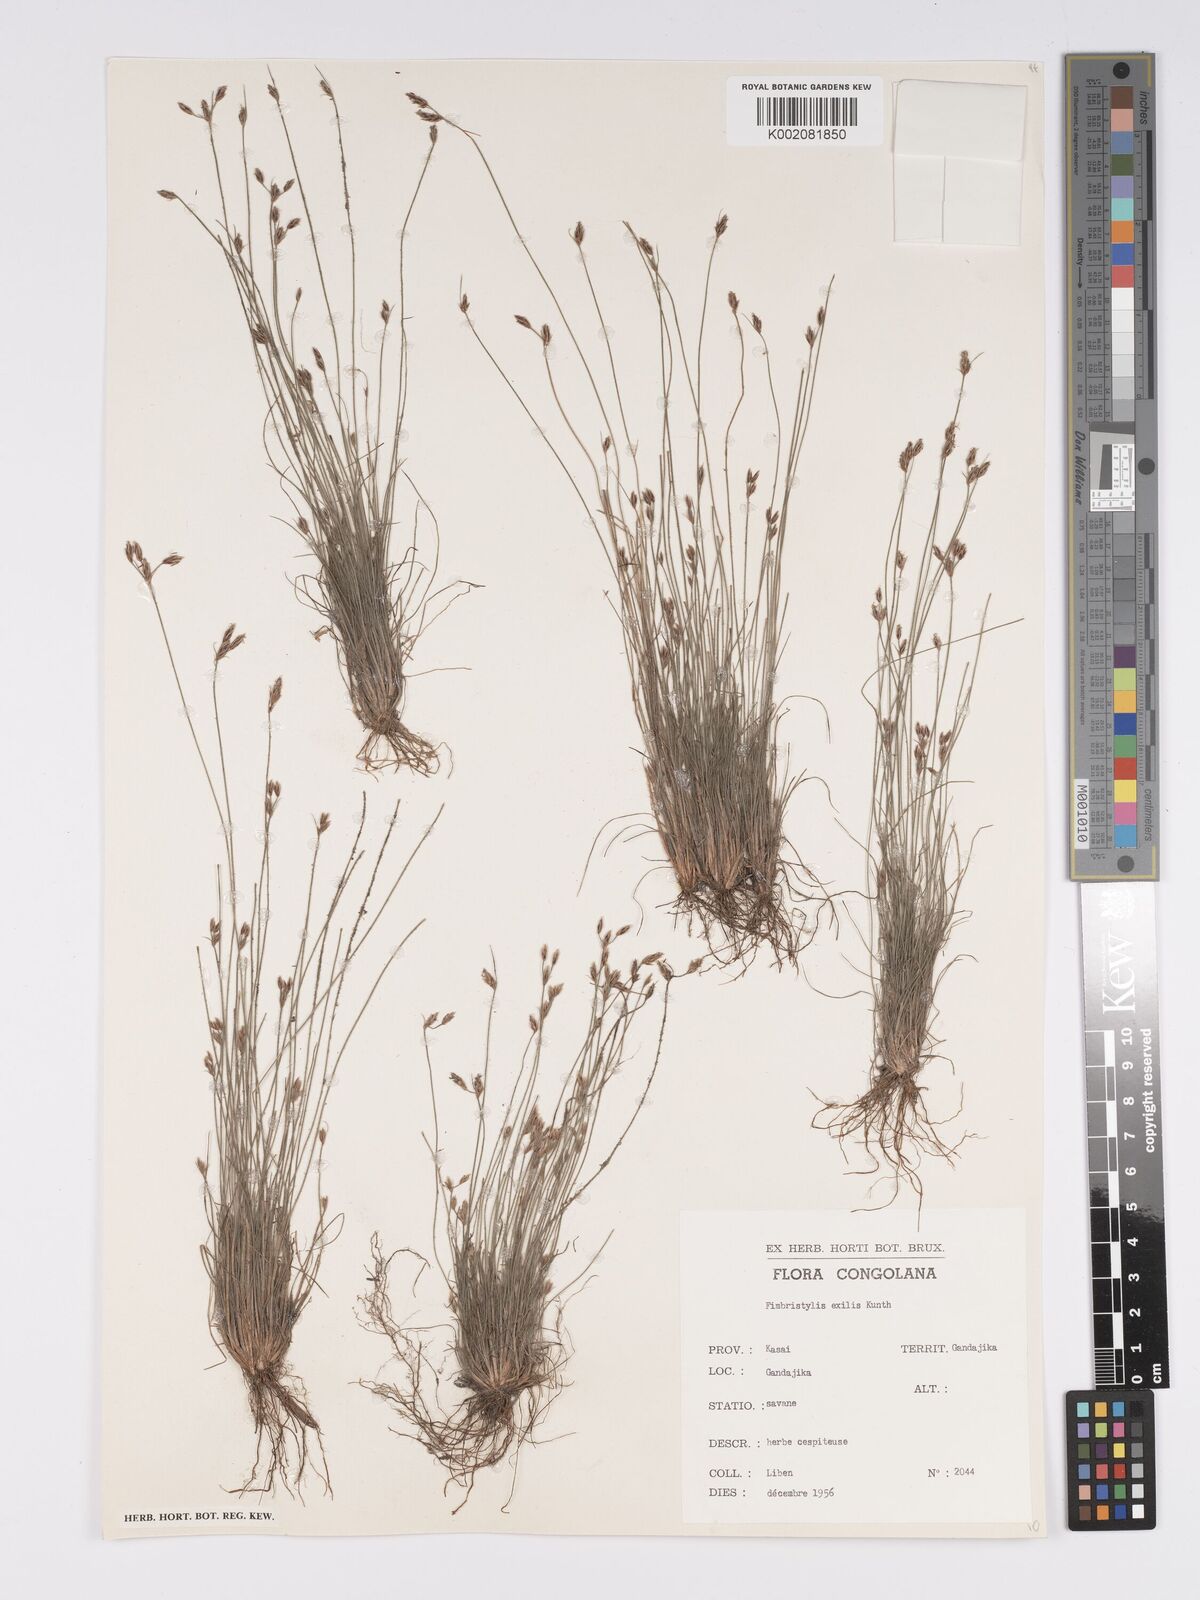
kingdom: Plantae
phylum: Tracheophyta
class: Liliopsida
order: Poales
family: Cyperaceae
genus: Bulbostylis
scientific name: Bulbostylis hispidula
